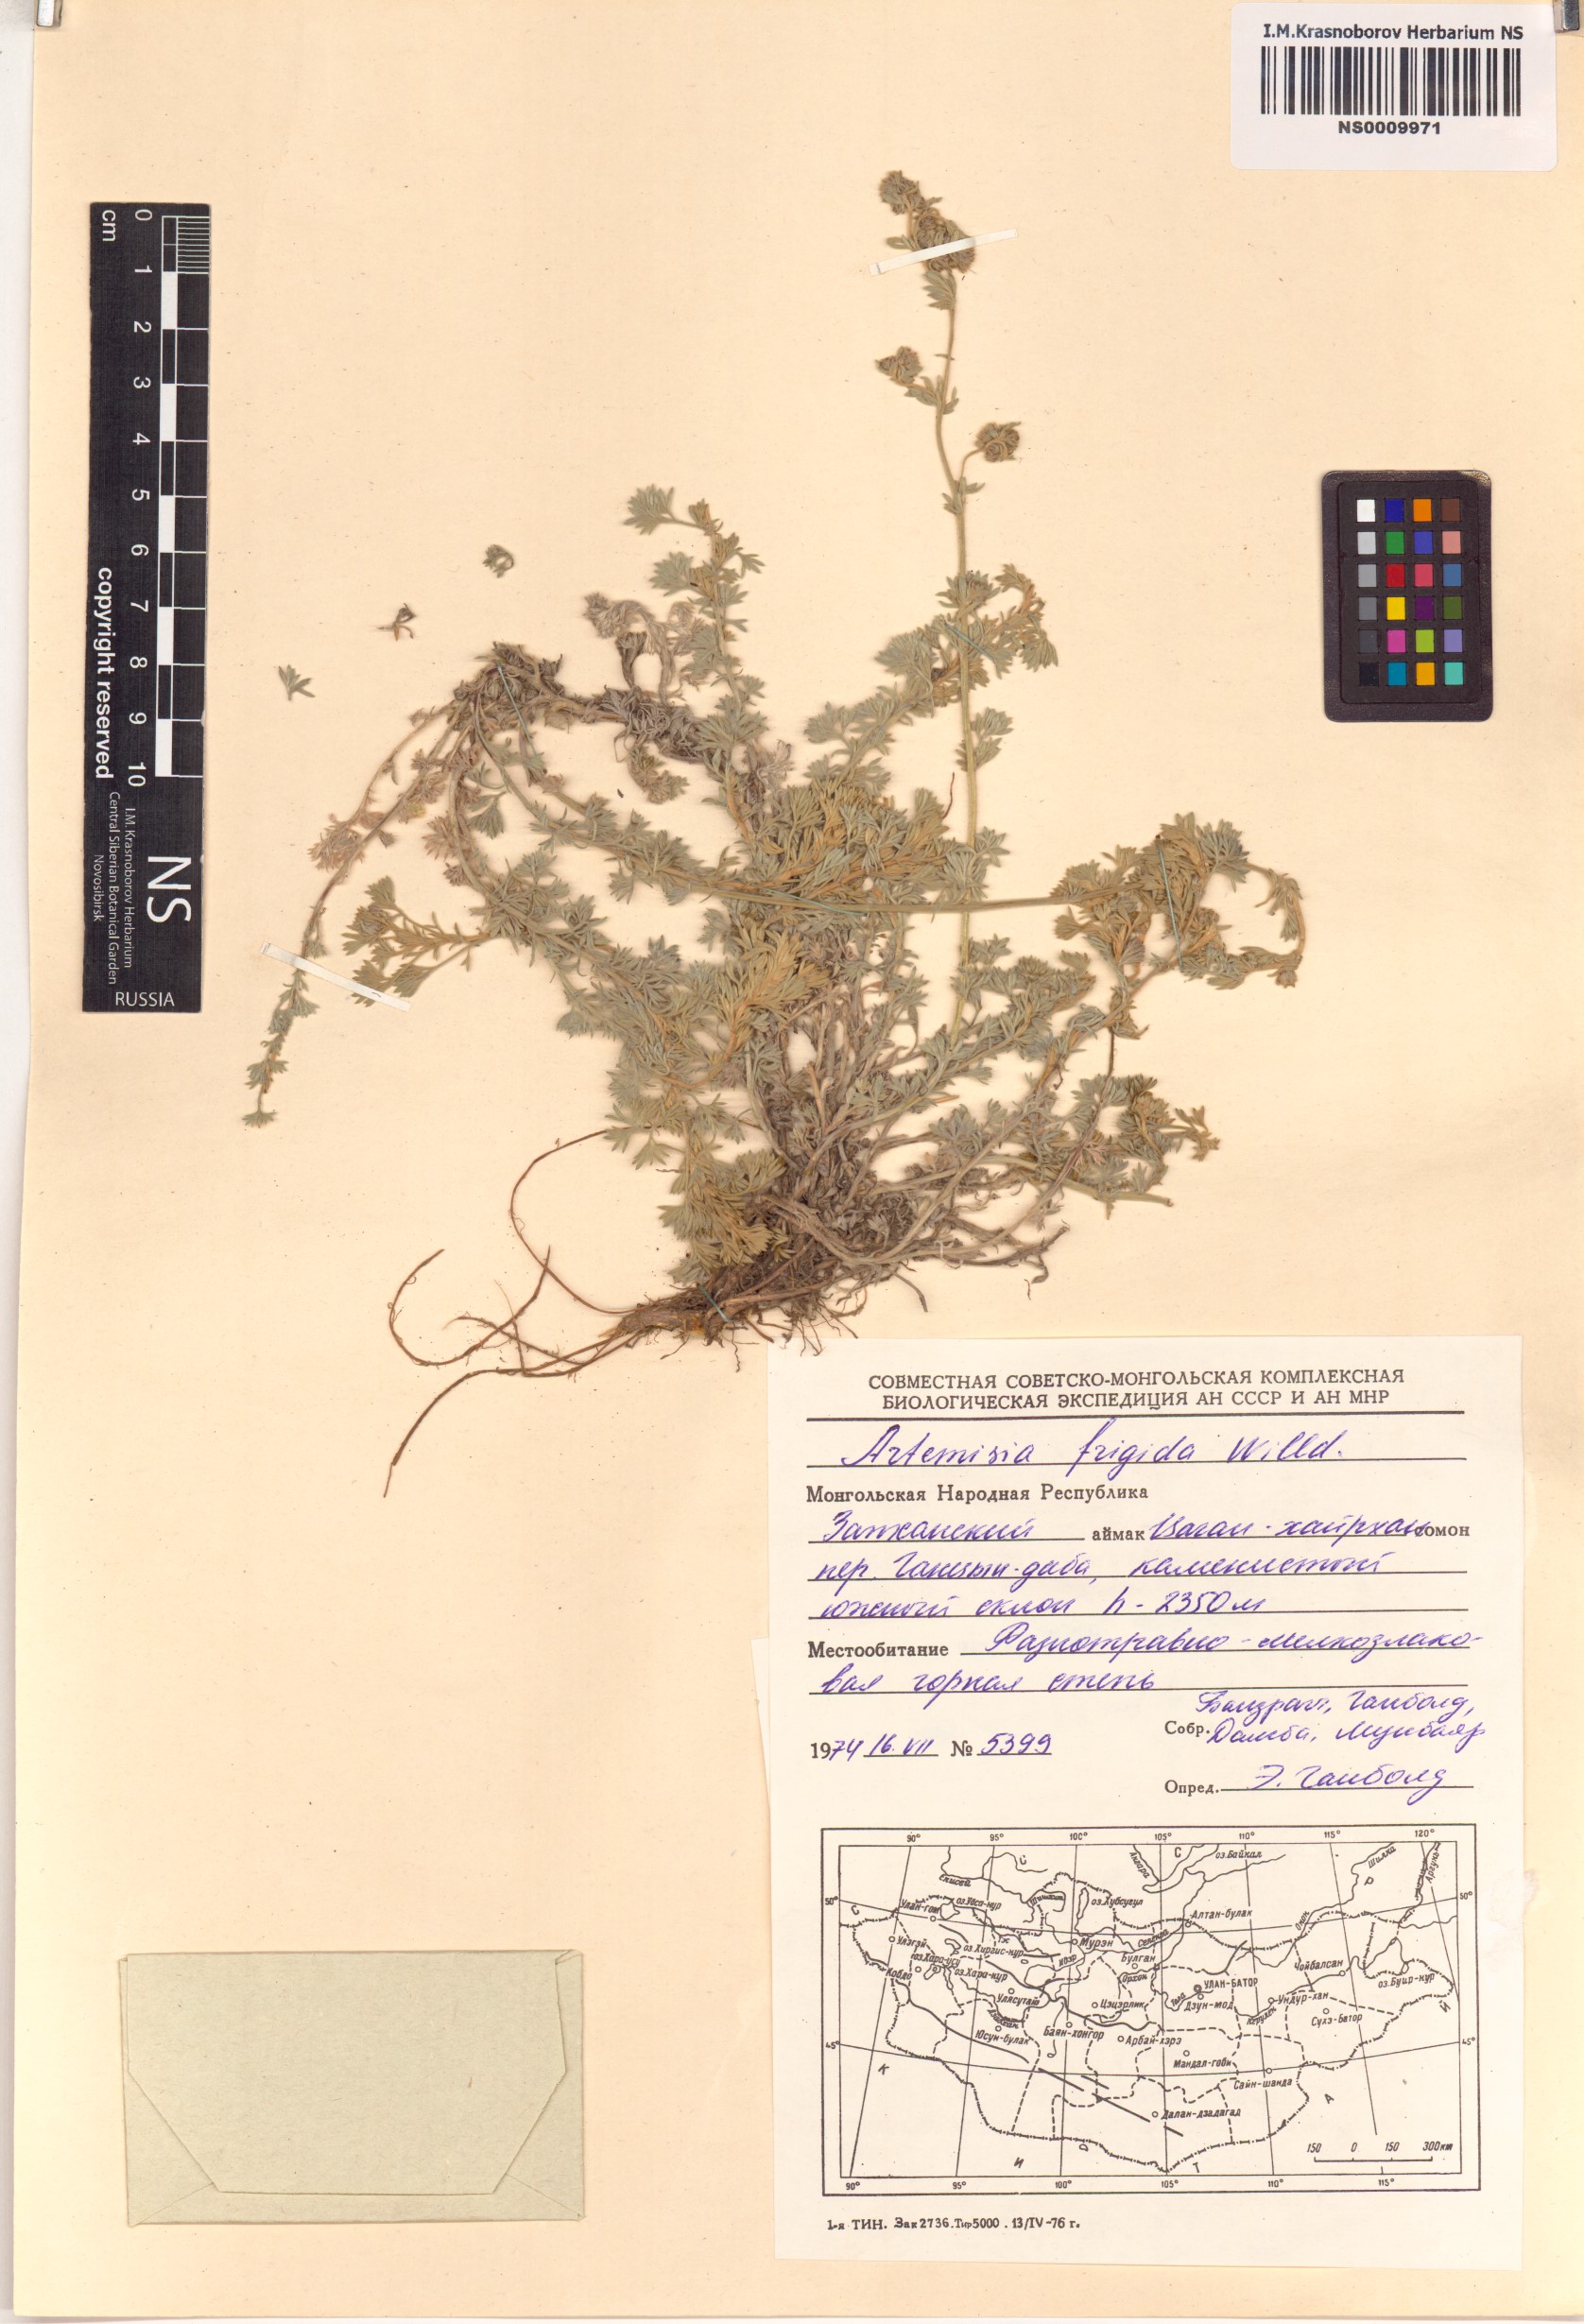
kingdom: Plantae
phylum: Tracheophyta
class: Magnoliopsida
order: Asterales
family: Asteraceae
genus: Artemisia
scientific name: Artemisia frigida
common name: Prairie sagewort
